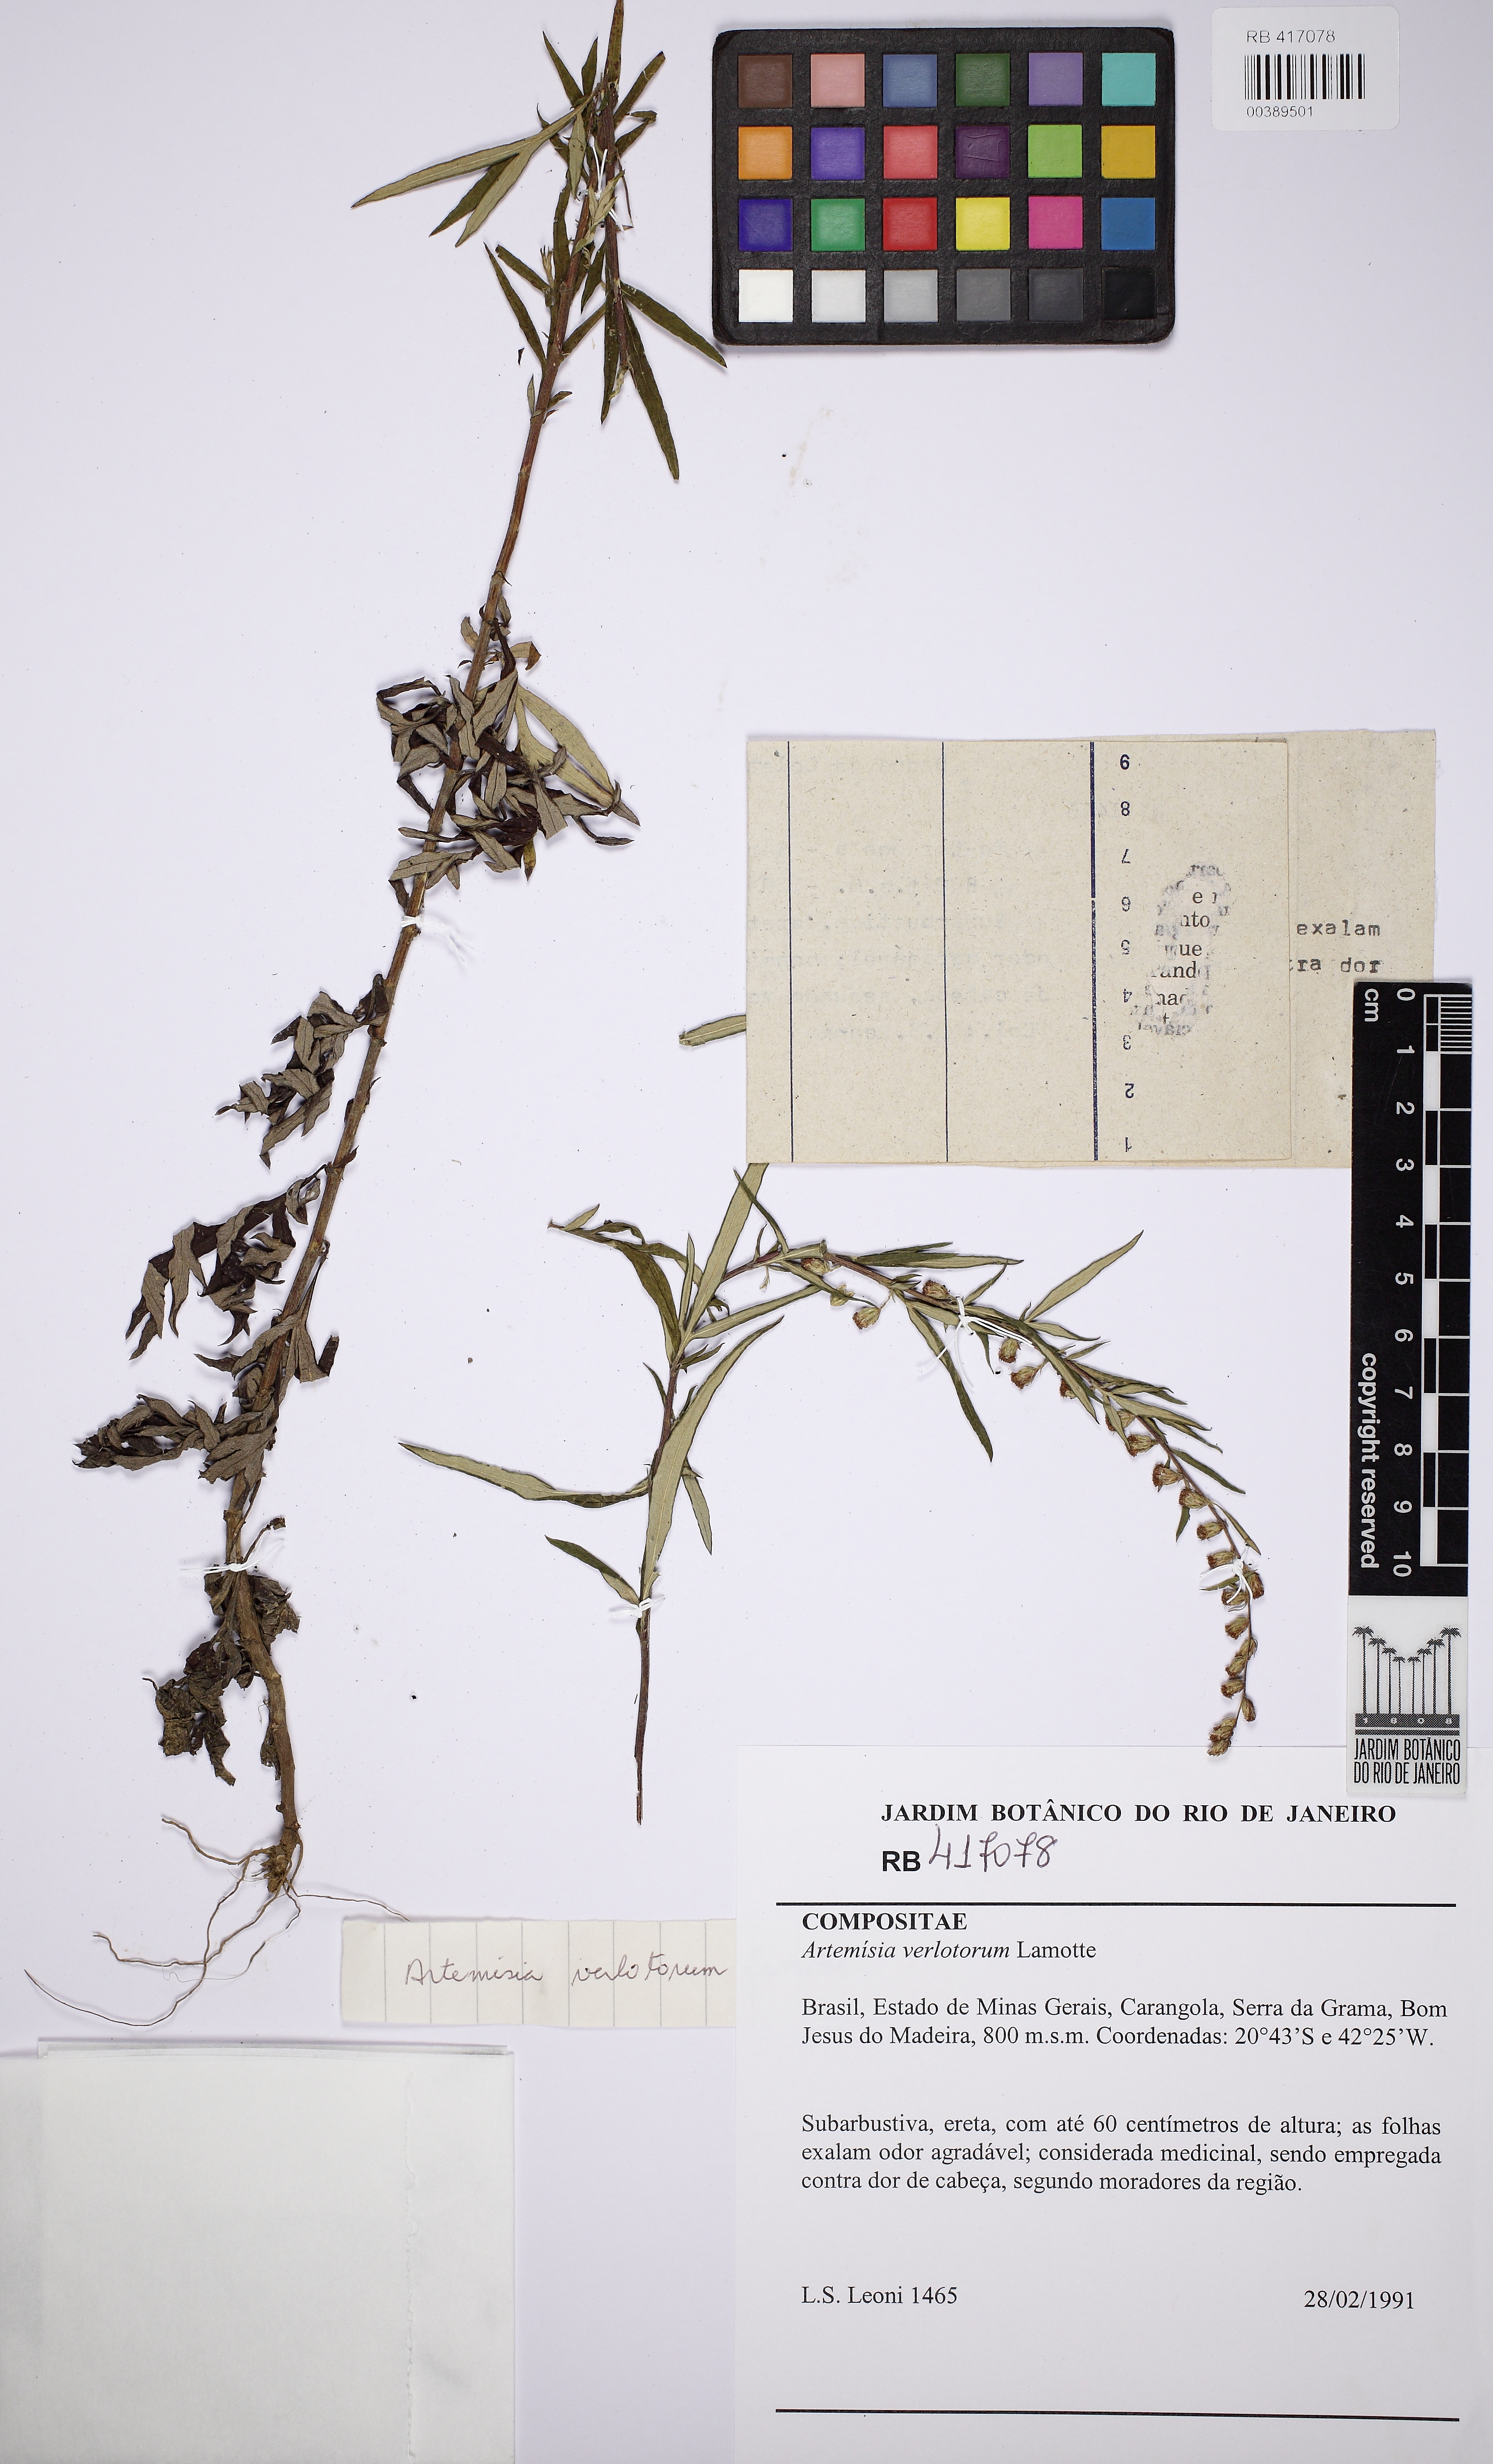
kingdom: Plantae
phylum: Tracheophyta
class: Magnoliopsida
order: Asterales
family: Asteraceae
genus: Artemisia
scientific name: Artemisia verlotiorum
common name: Chinese mugwort
